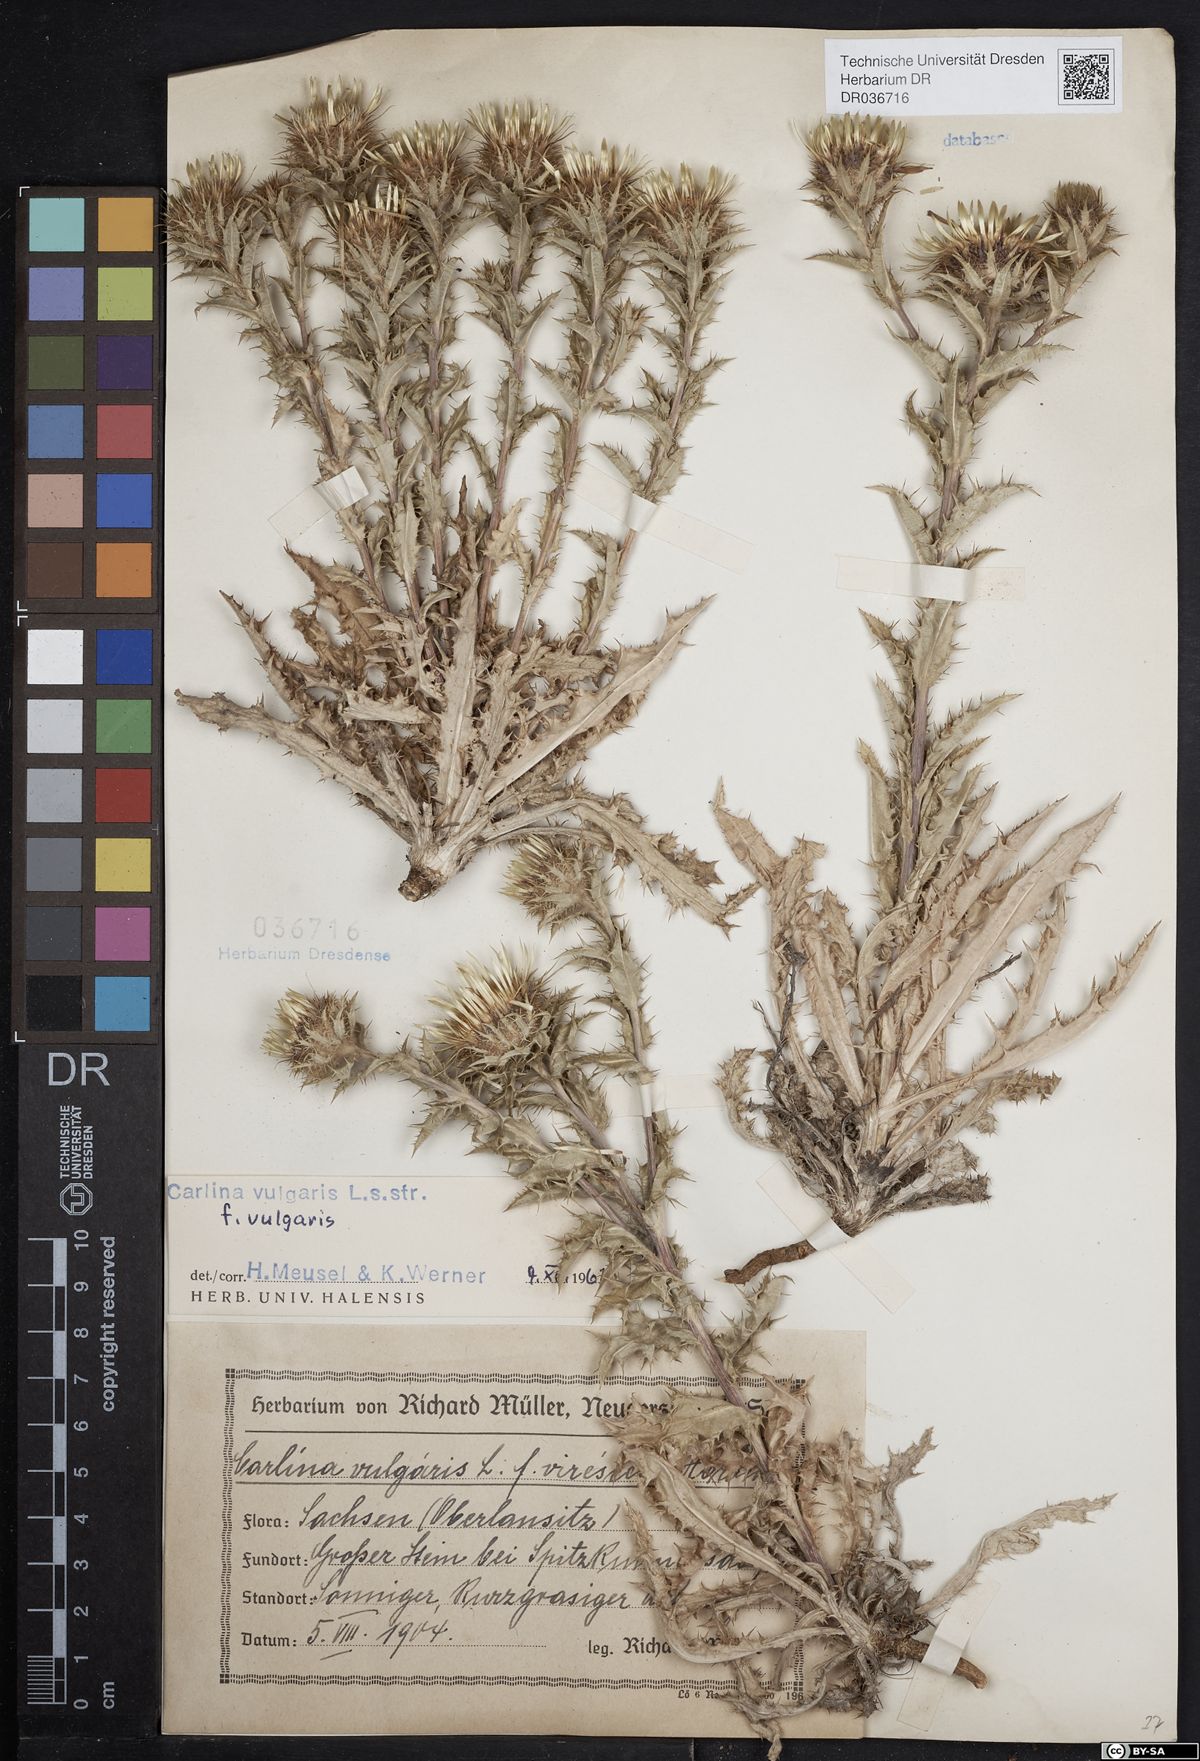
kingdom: Plantae
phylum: Tracheophyta
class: Magnoliopsida
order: Asterales
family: Asteraceae
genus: Carlina
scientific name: Carlina vulgaris
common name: Carline thistle
